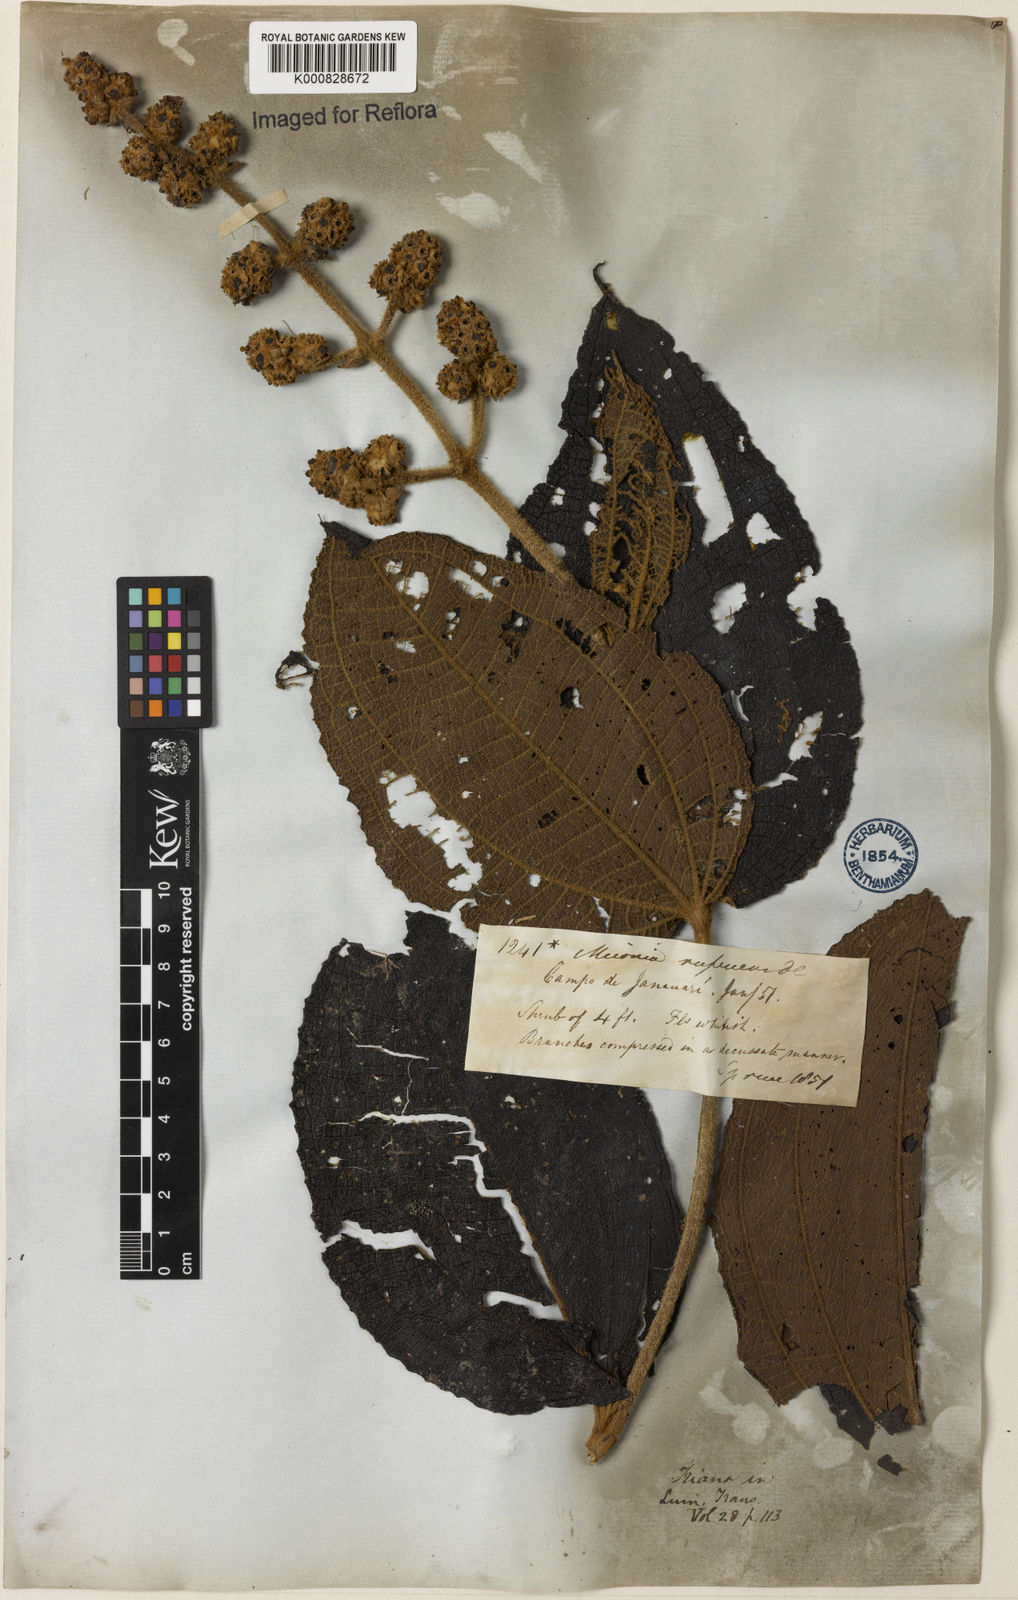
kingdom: Plantae
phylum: Tracheophyta
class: Magnoliopsida
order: Myrtales
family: Melastomataceae
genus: Miconia
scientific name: Miconia rufescens
